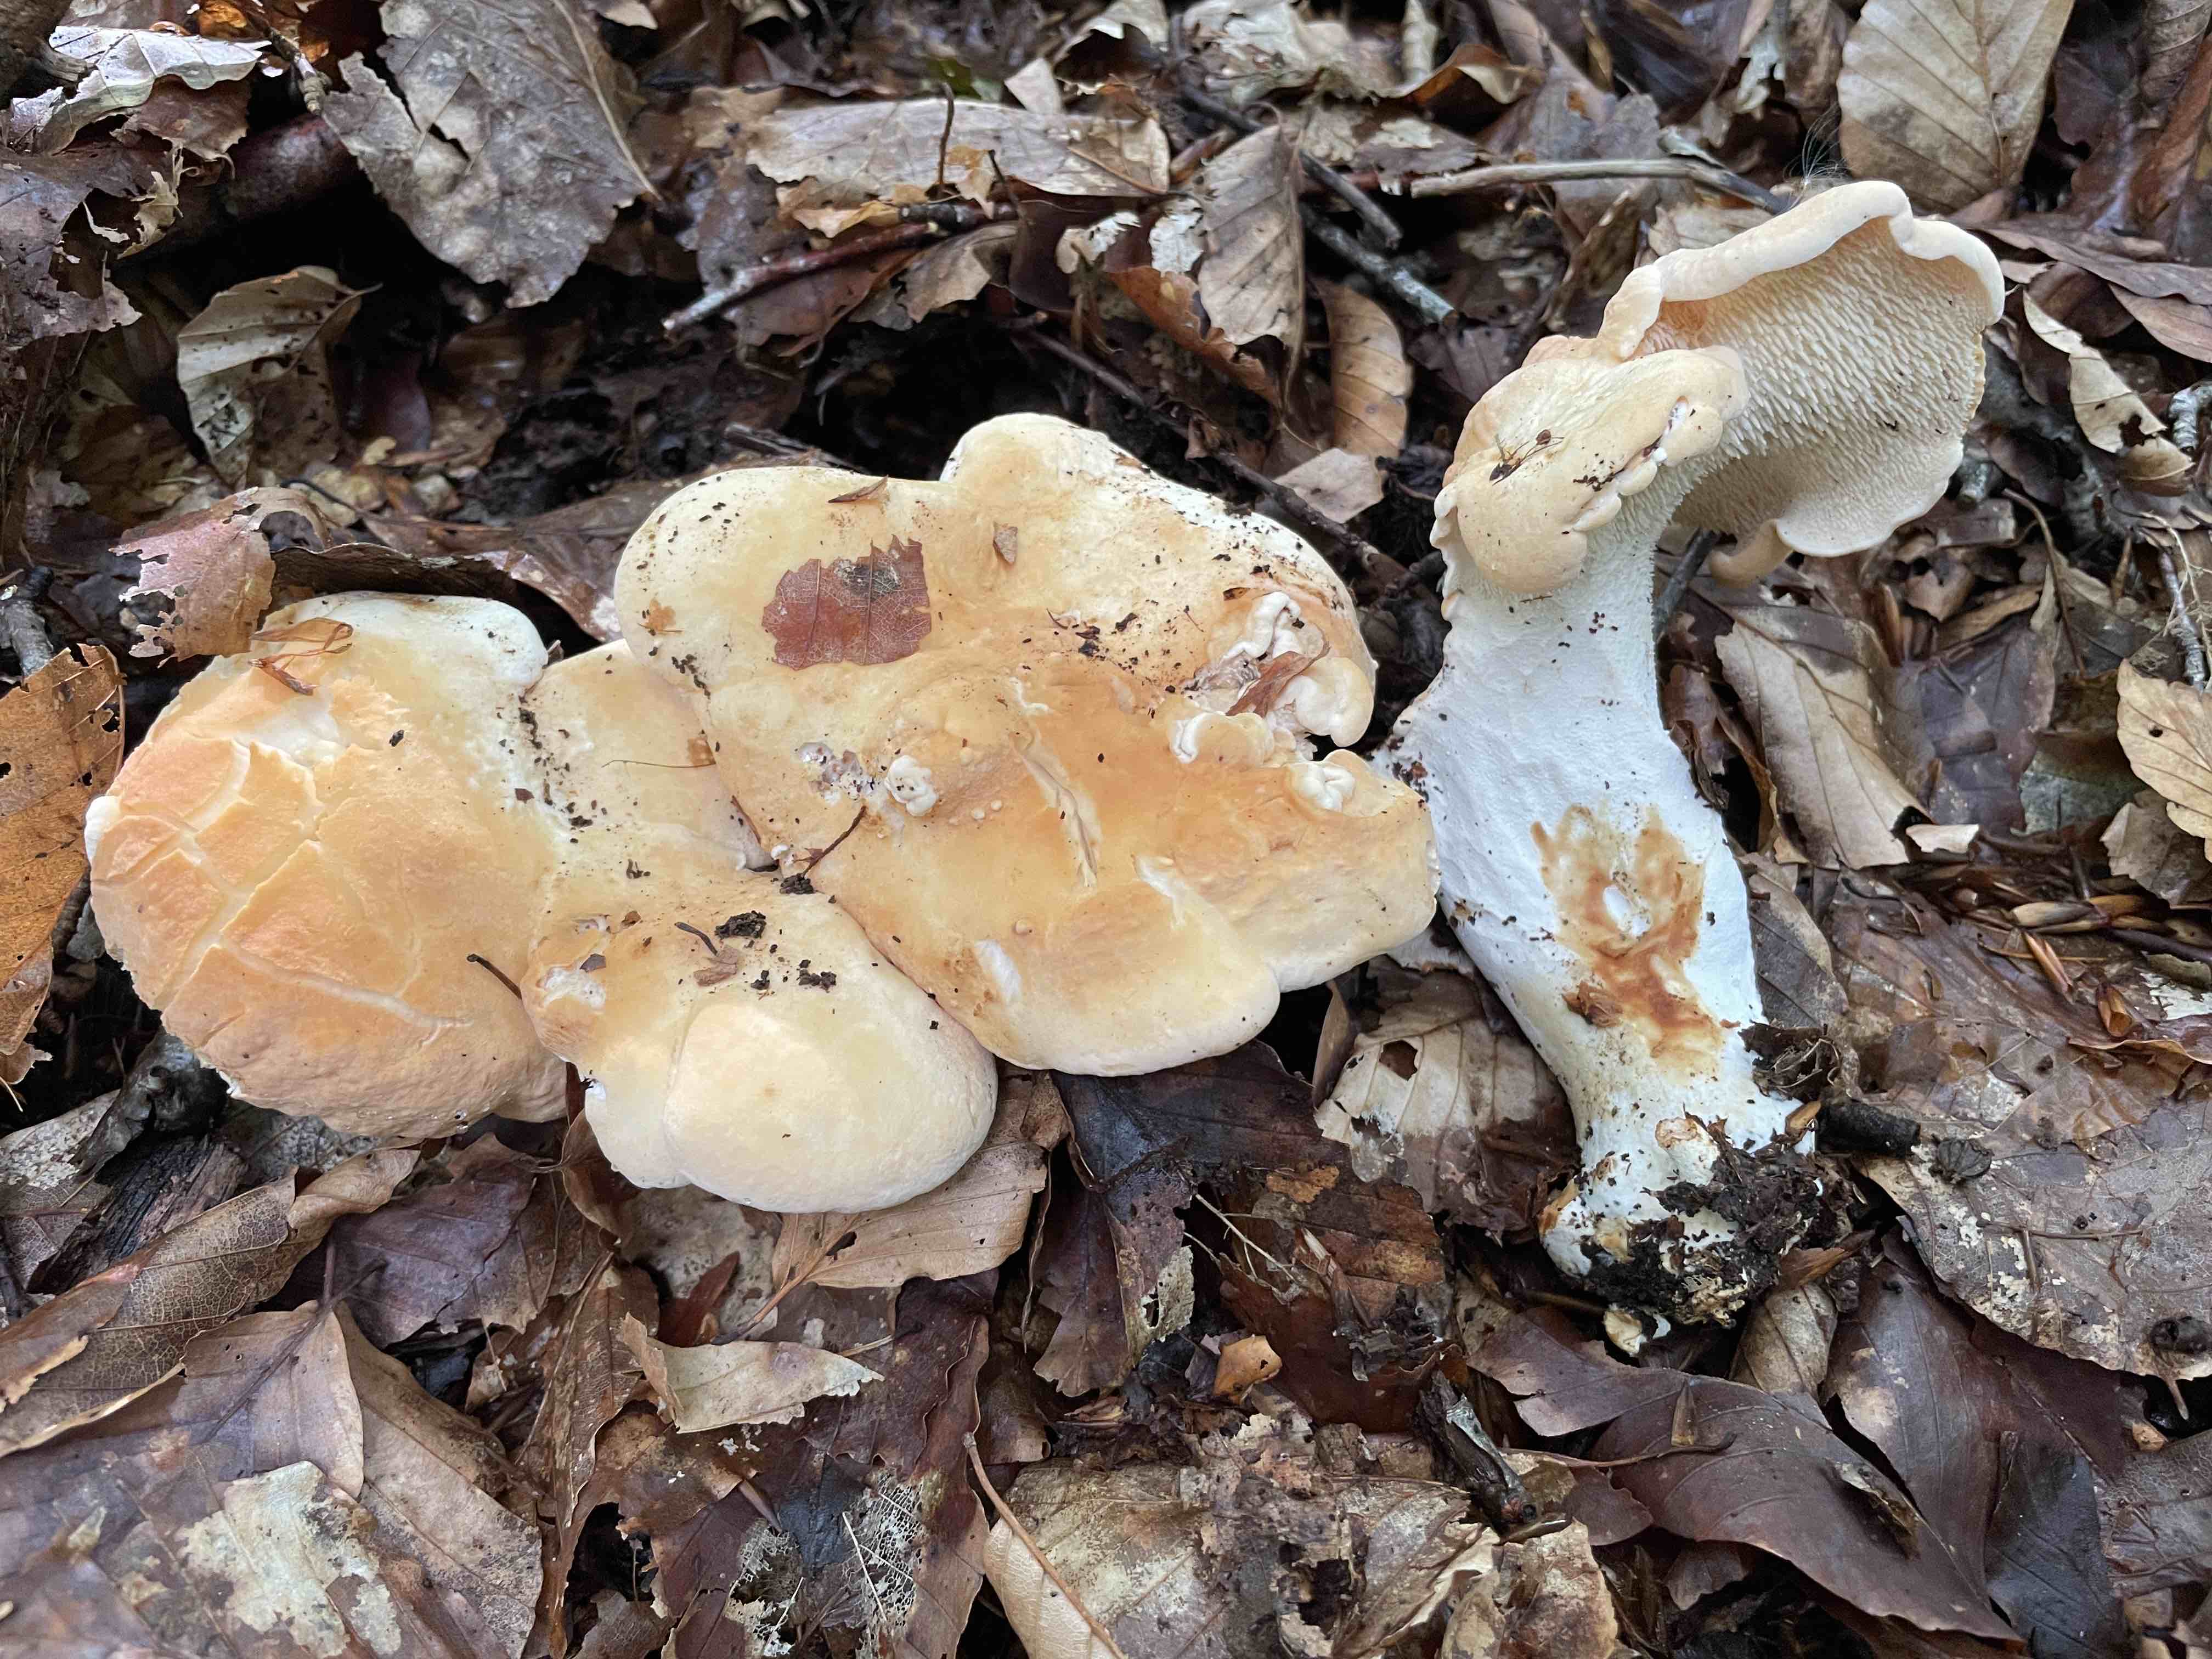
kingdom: Fungi
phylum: Basidiomycota
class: Agaricomycetes
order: Cantharellales
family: Hydnaceae
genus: Hydnum
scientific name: Hydnum slovenicum
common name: slovensk pigsvamp
